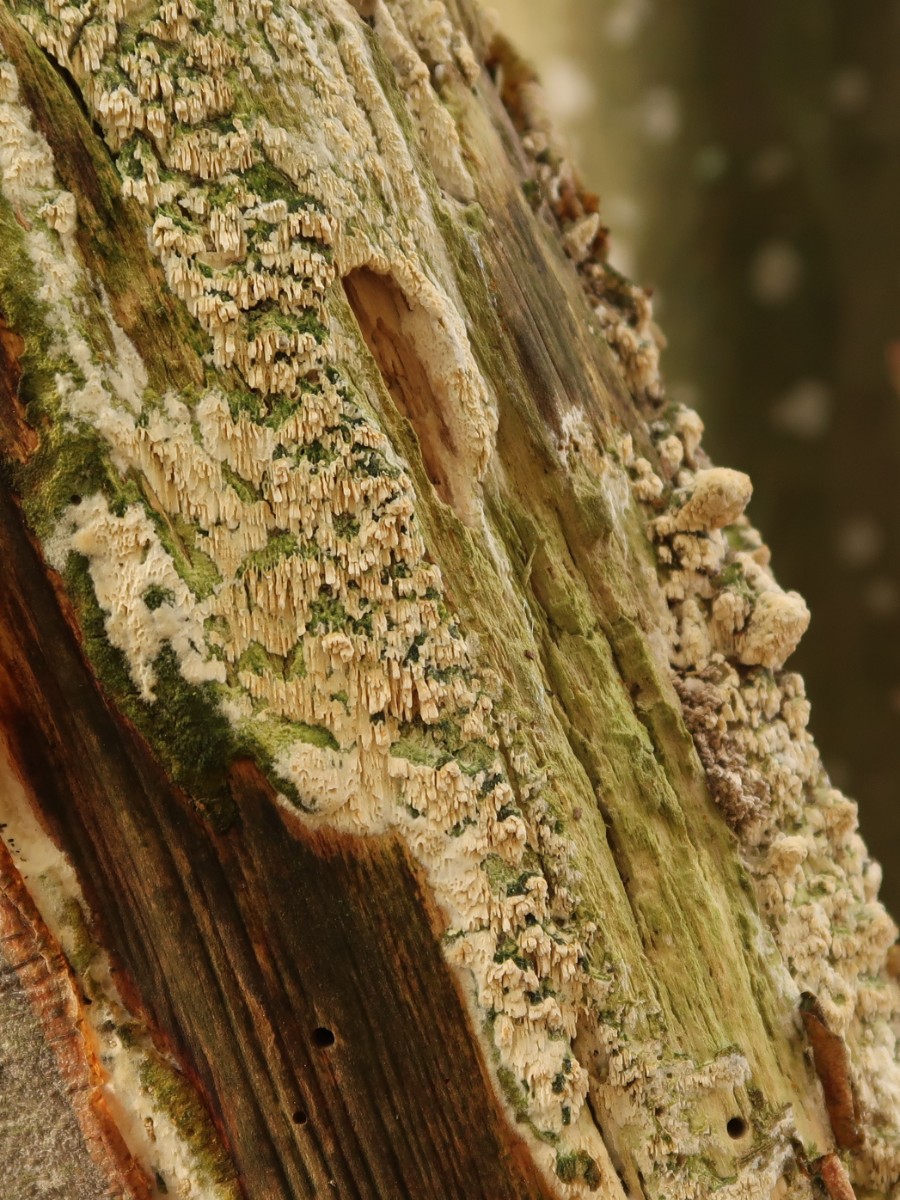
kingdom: Fungi
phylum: Basidiomycota
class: Agaricomycetes
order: Hymenochaetales
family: Schizoporaceae
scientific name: Schizoporaceae
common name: tandsvampfamilien
